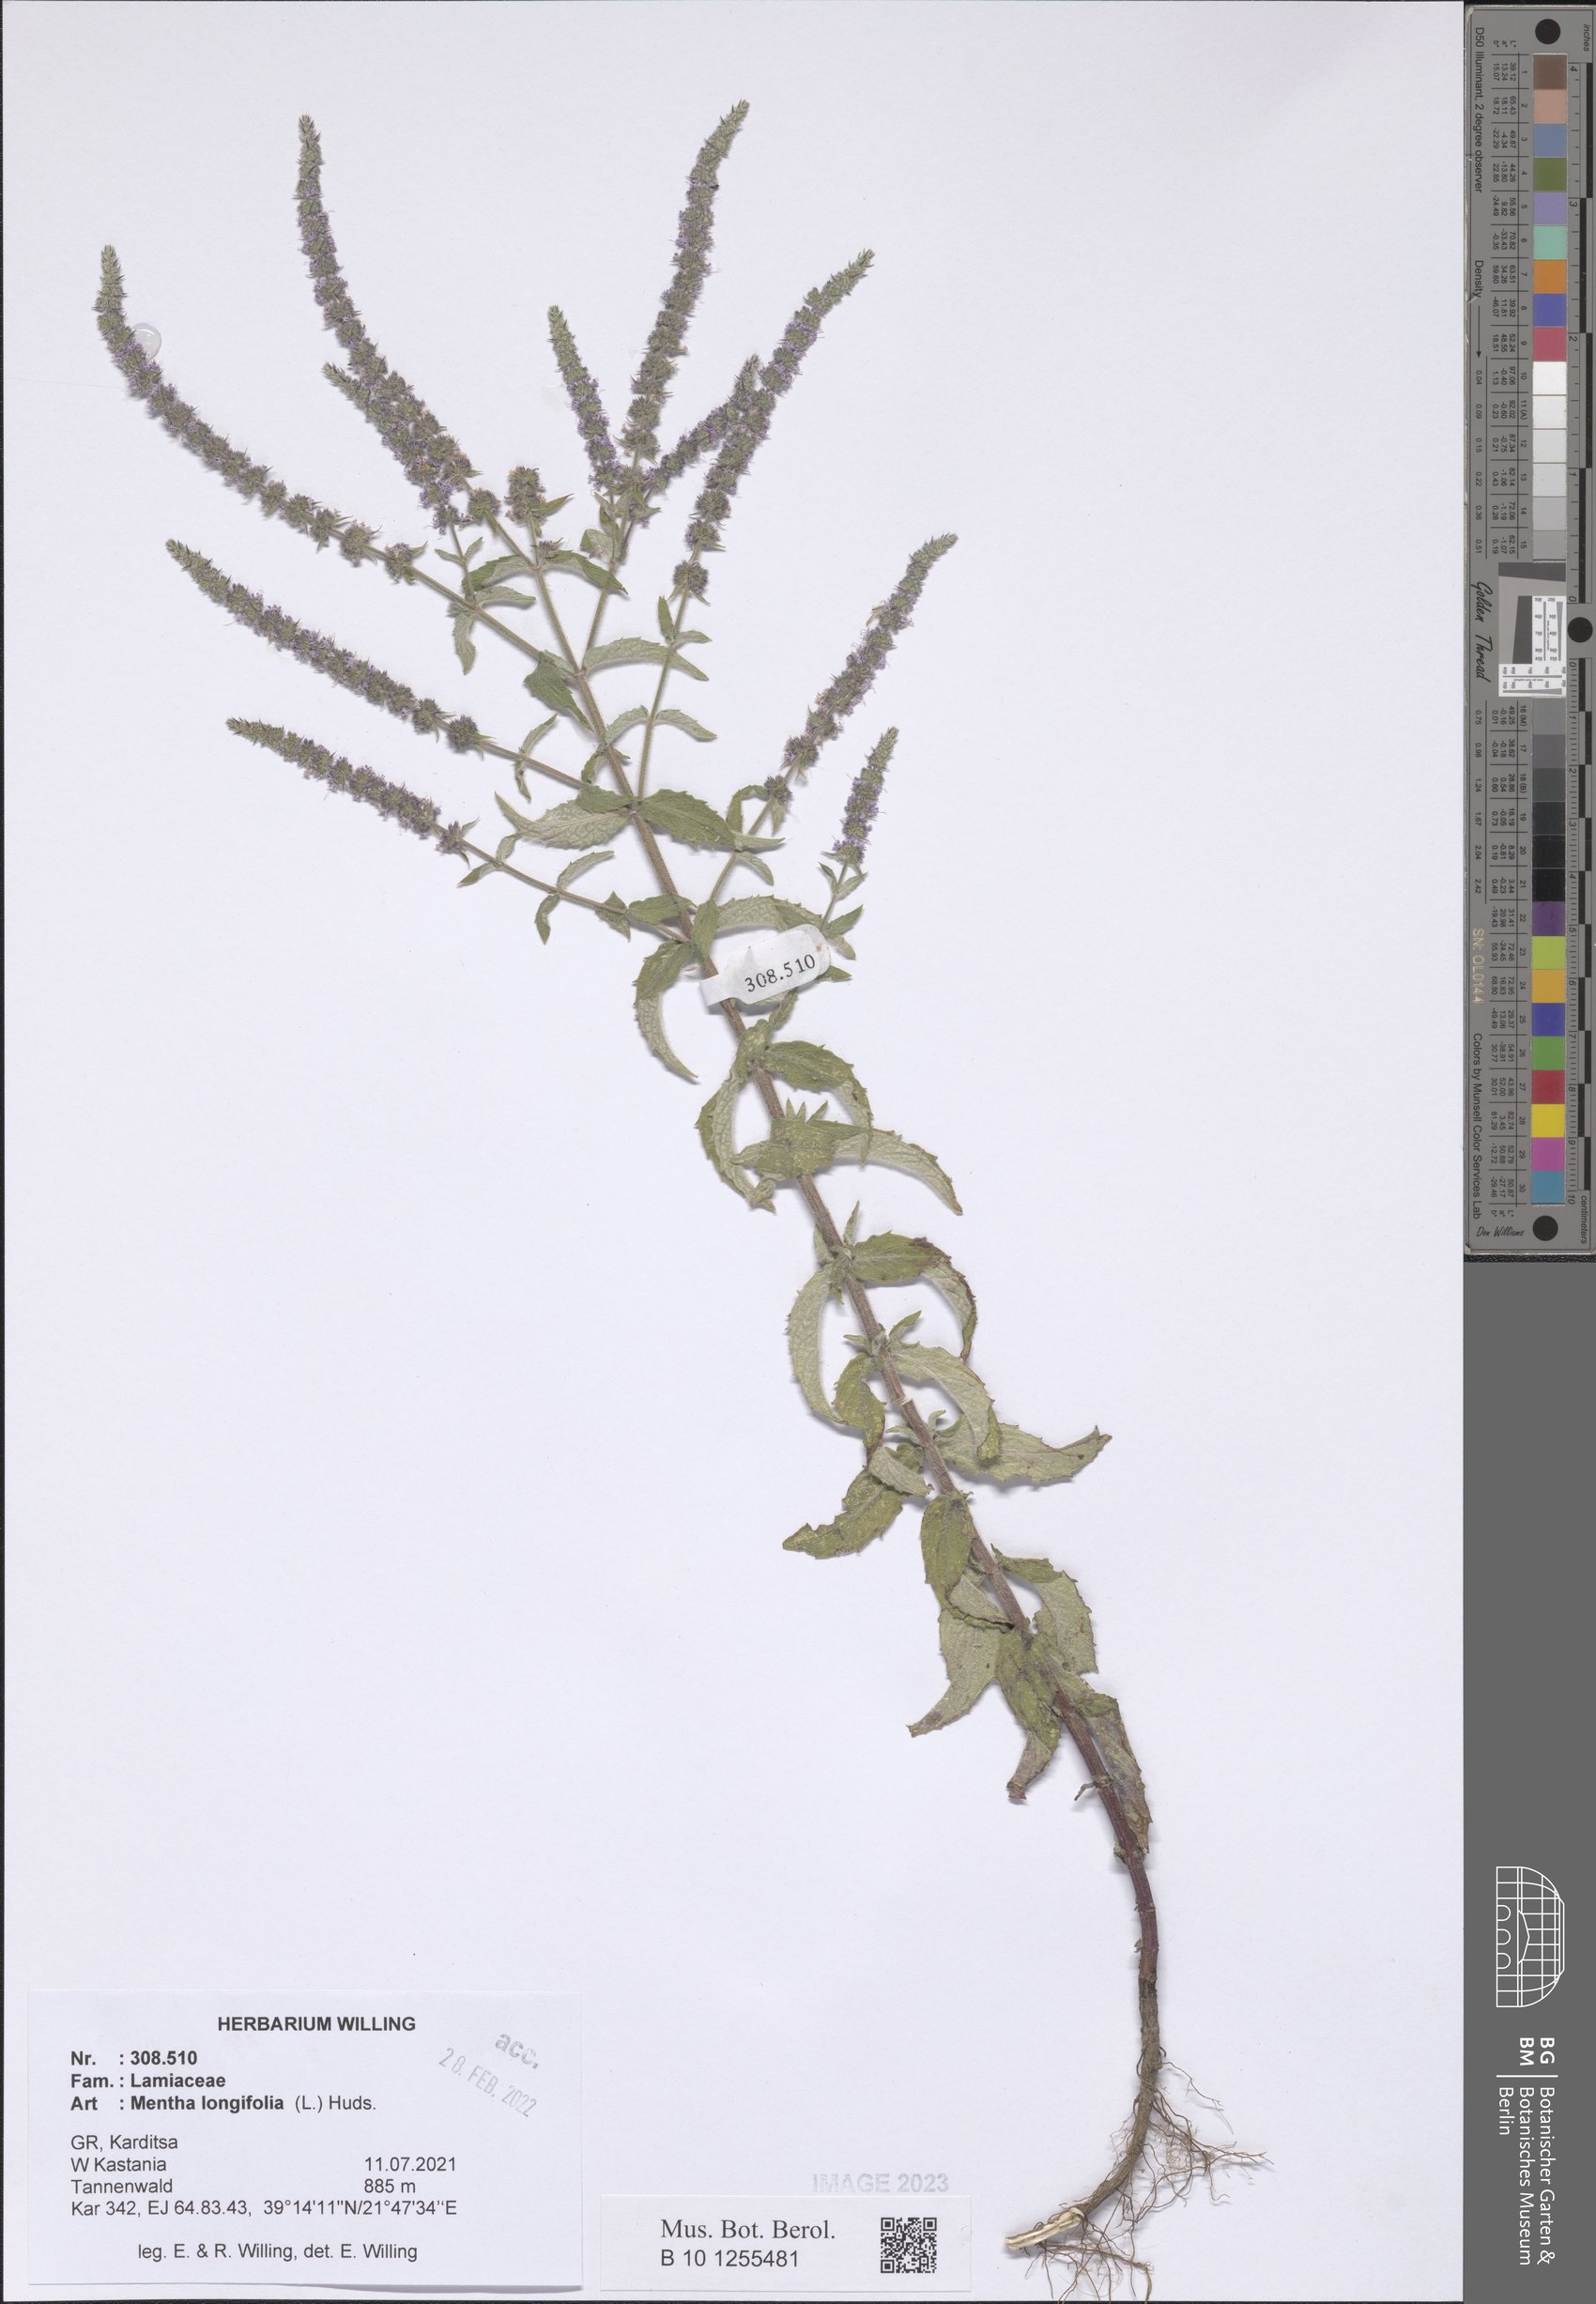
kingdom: Plantae
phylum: Tracheophyta
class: Magnoliopsida
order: Lamiales
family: Lamiaceae
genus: Mentha
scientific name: Mentha longifolia
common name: Horse mint
